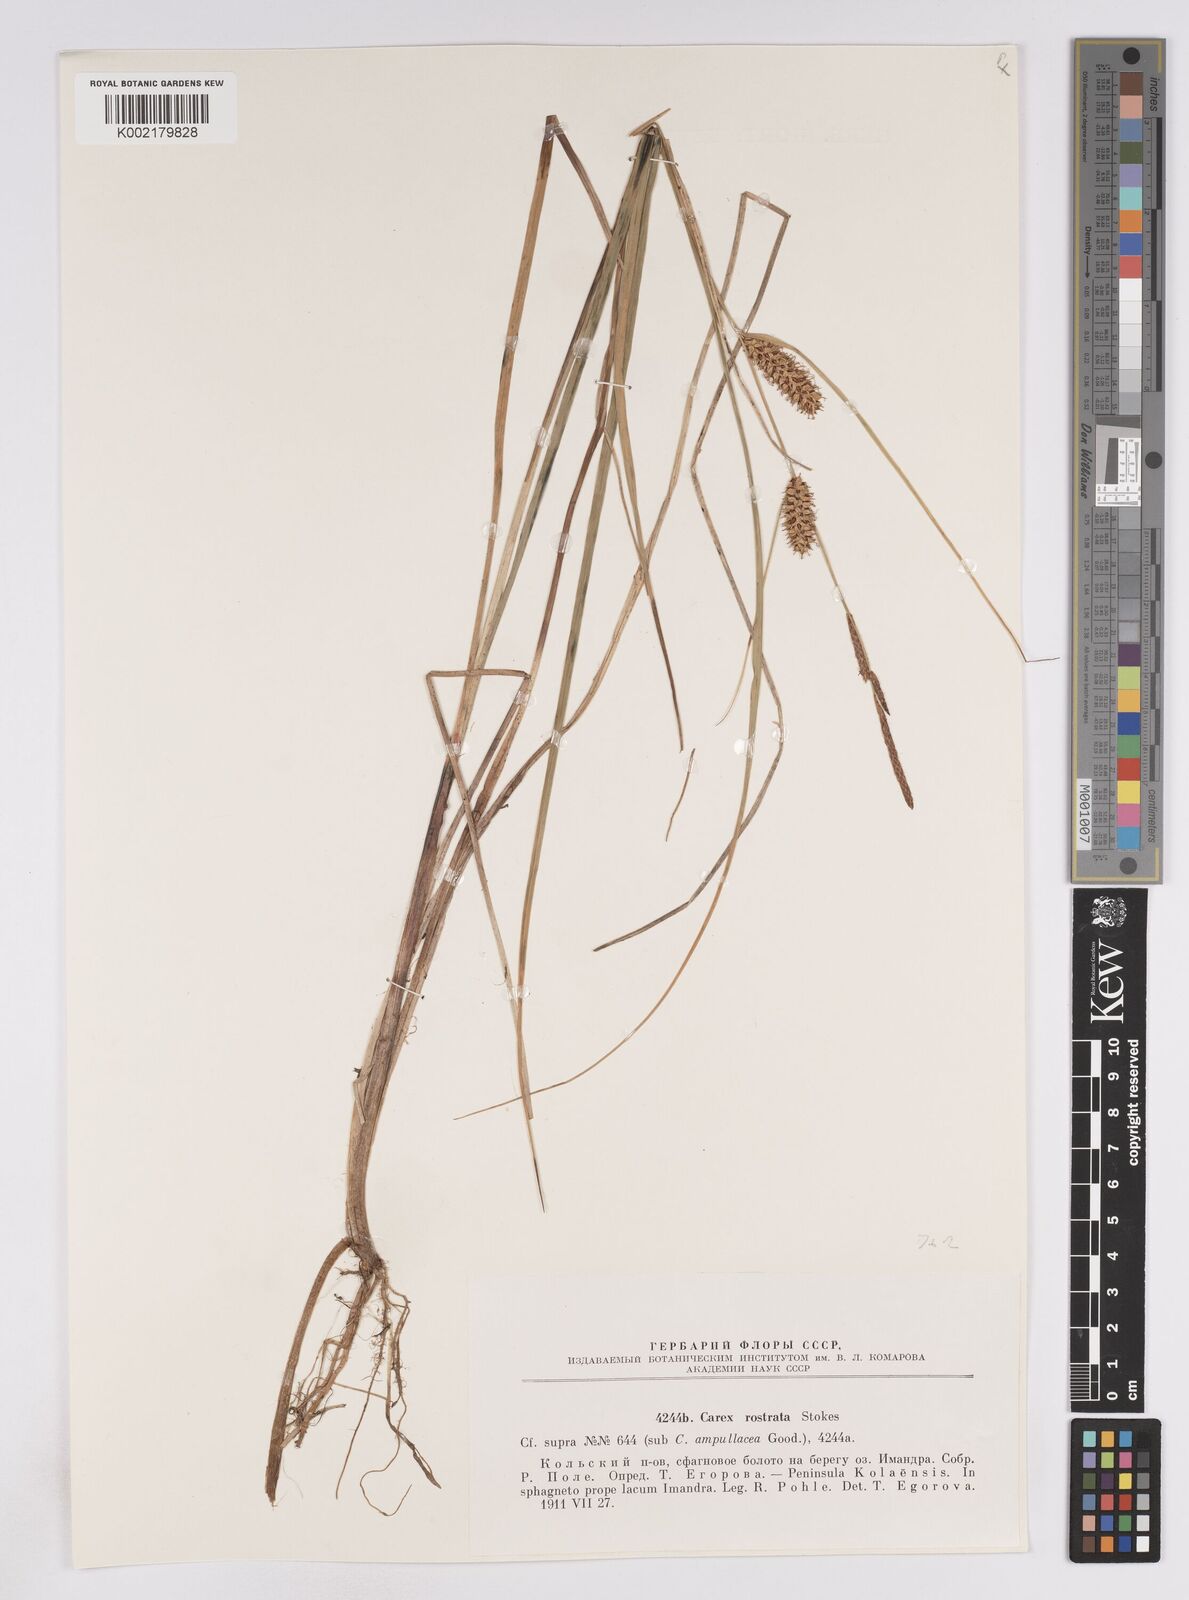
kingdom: Plantae
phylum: Tracheophyta
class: Liliopsida
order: Poales
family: Cyperaceae
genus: Carex
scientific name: Carex rostrata
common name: Bottle sedge
